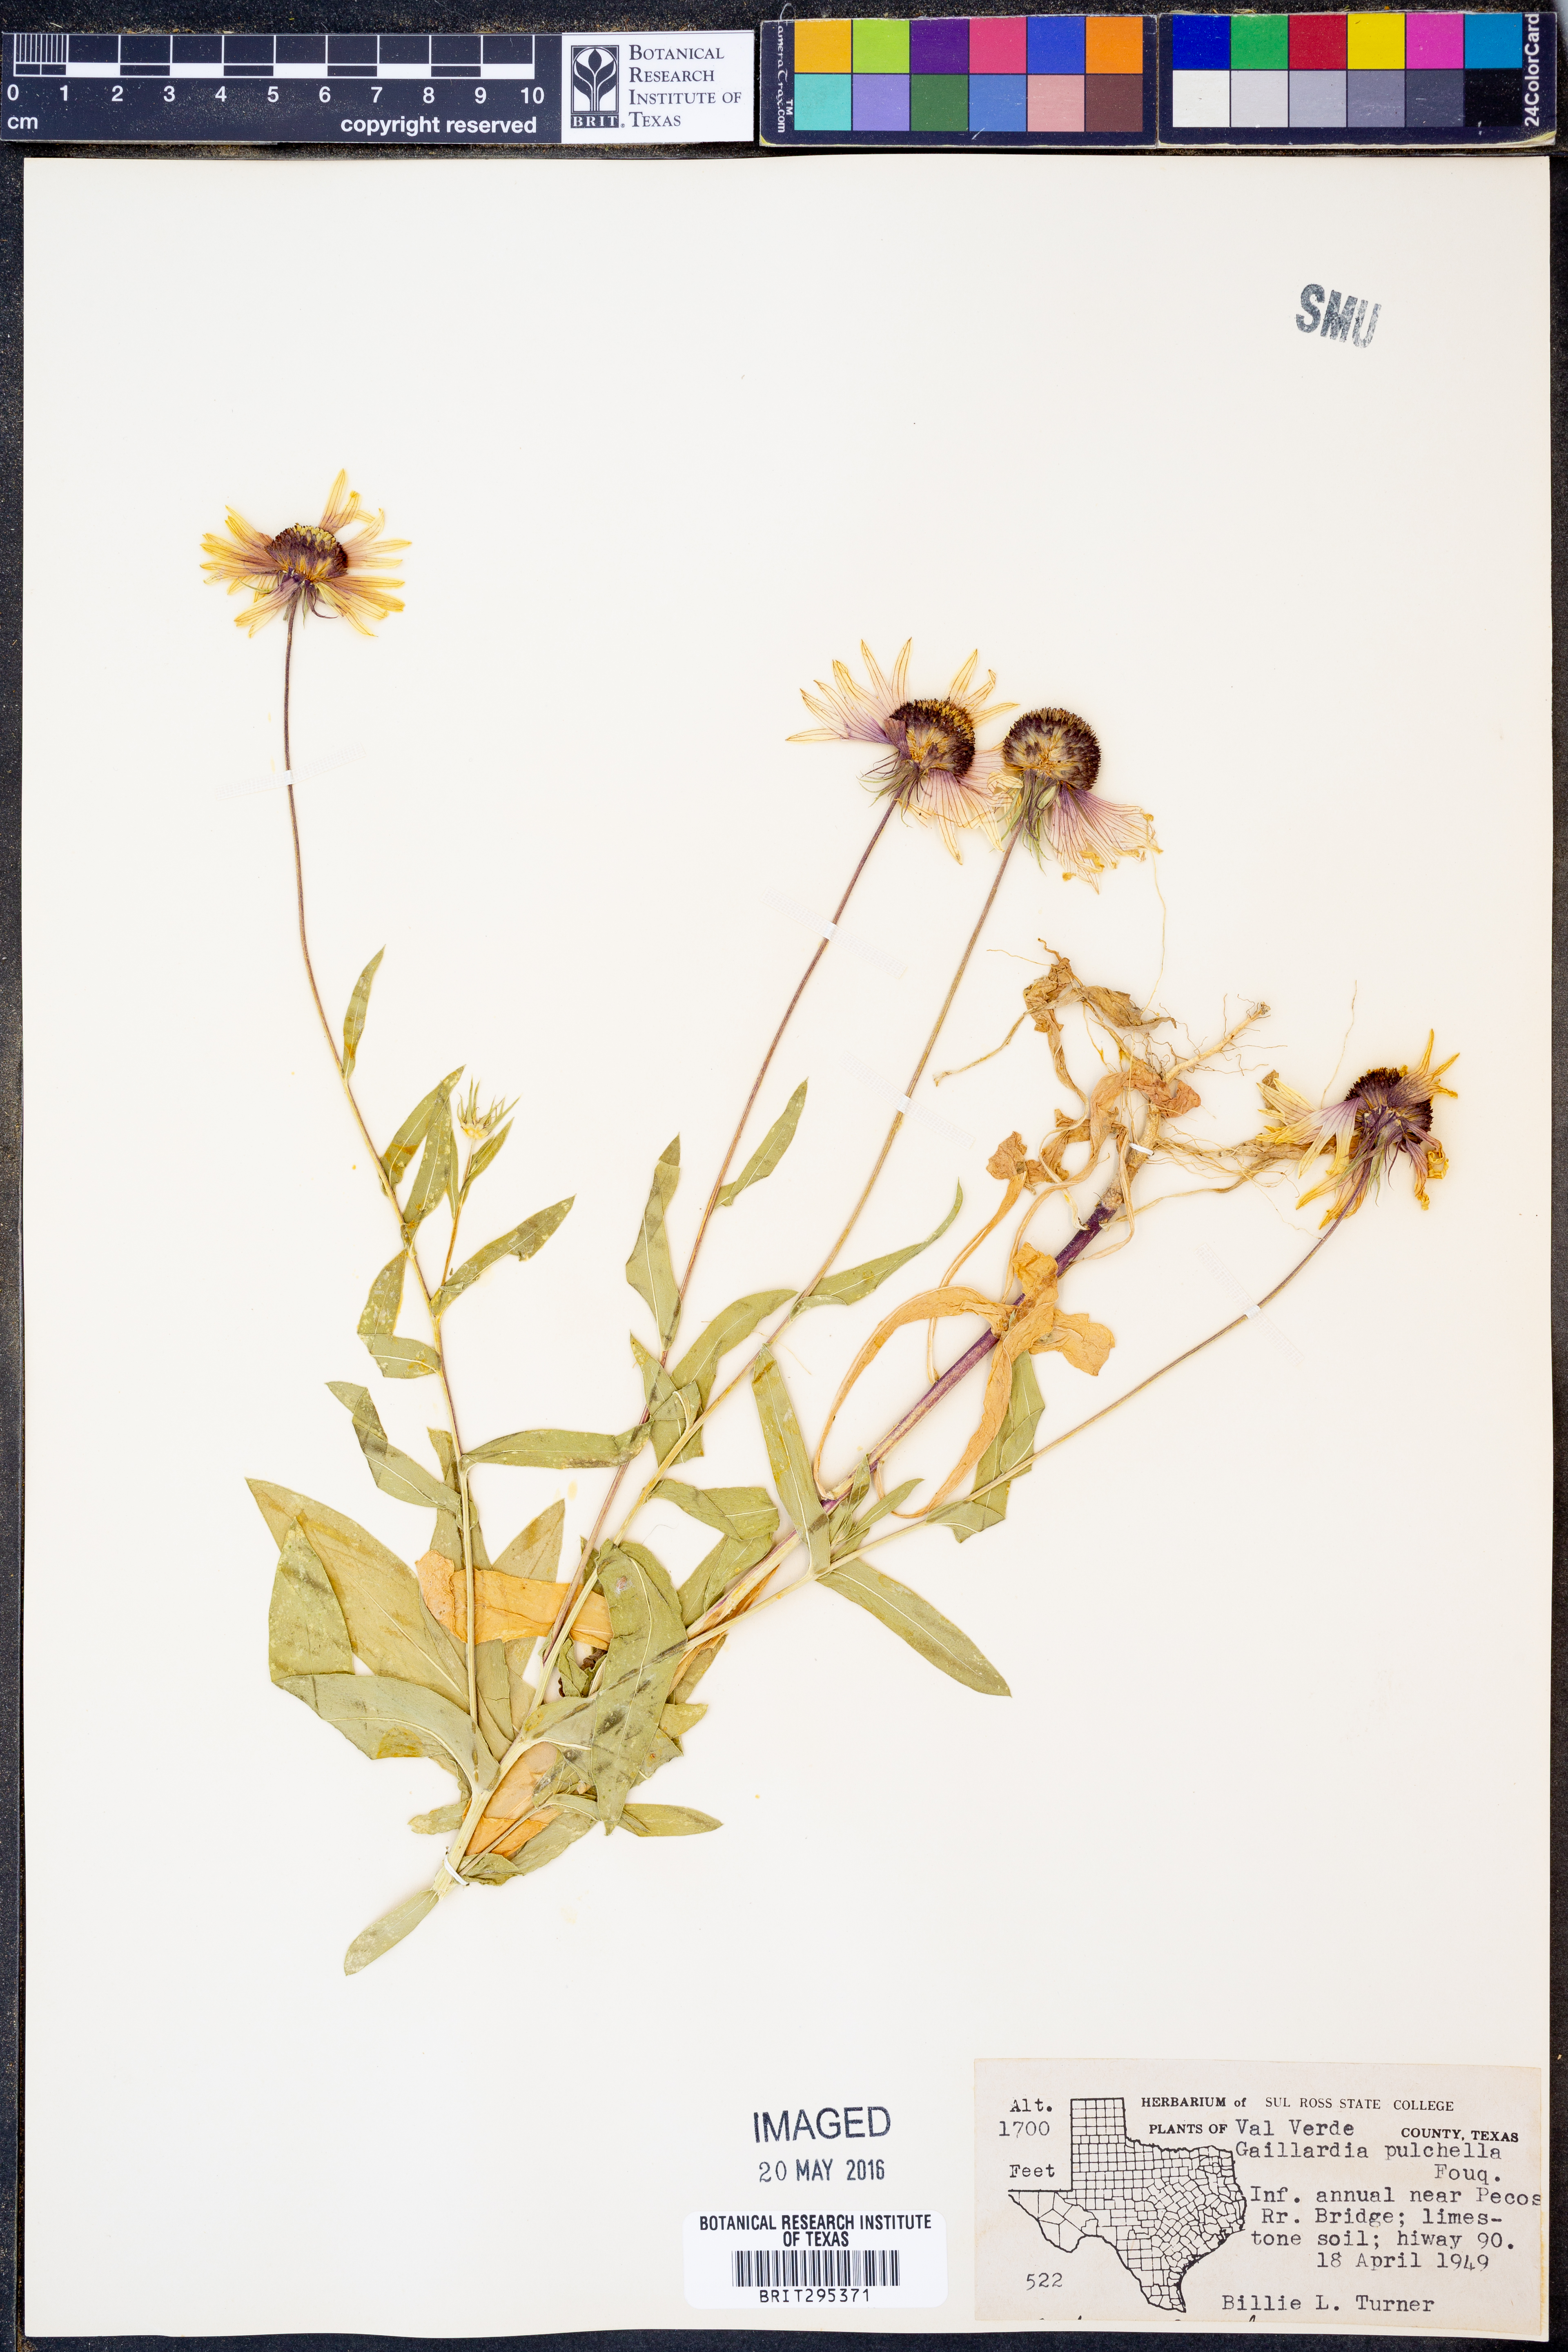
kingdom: Plantae
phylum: Tracheophyta
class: Magnoliopsida
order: Asterales
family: Asteraceae
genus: Gaillardia
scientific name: Gaillardia pulchella
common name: Firewheel
